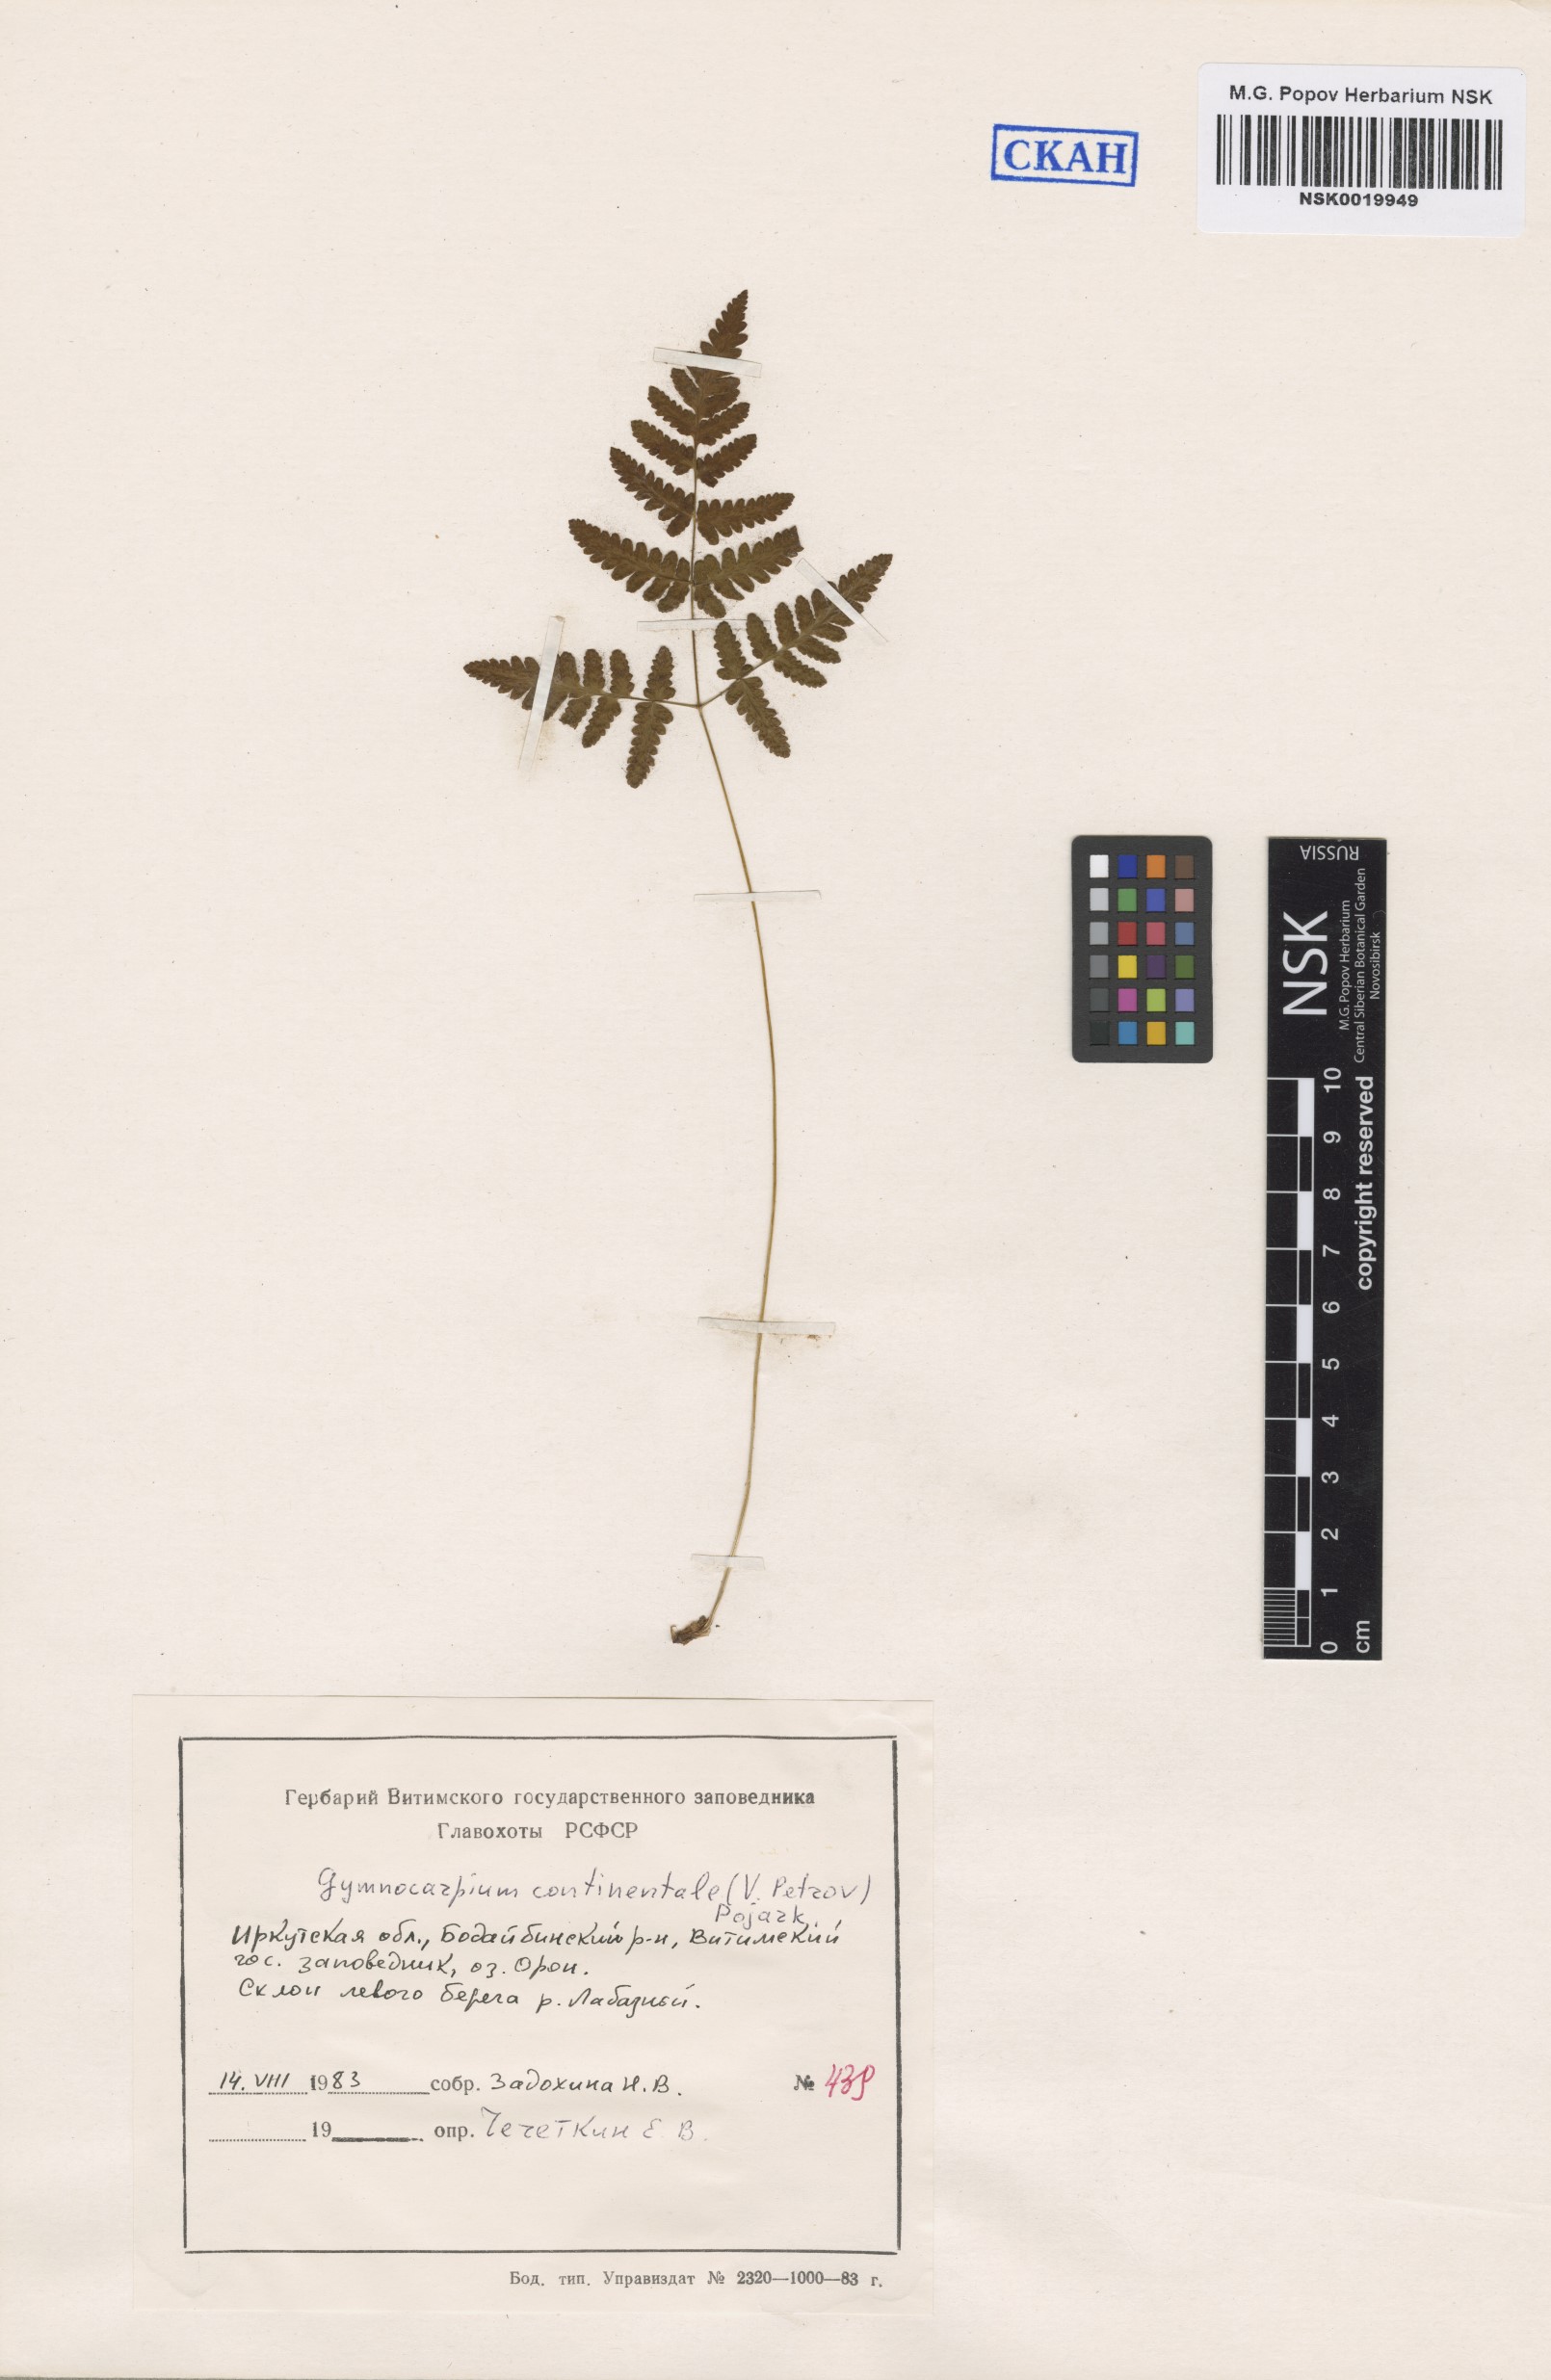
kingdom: Plantae
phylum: Tracheophyta
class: Polypodiopsida
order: Polypodiales
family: Cystopteridaceae
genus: Gymnocarpium
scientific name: Gymnocarpium continentale
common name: Asian oak fern
